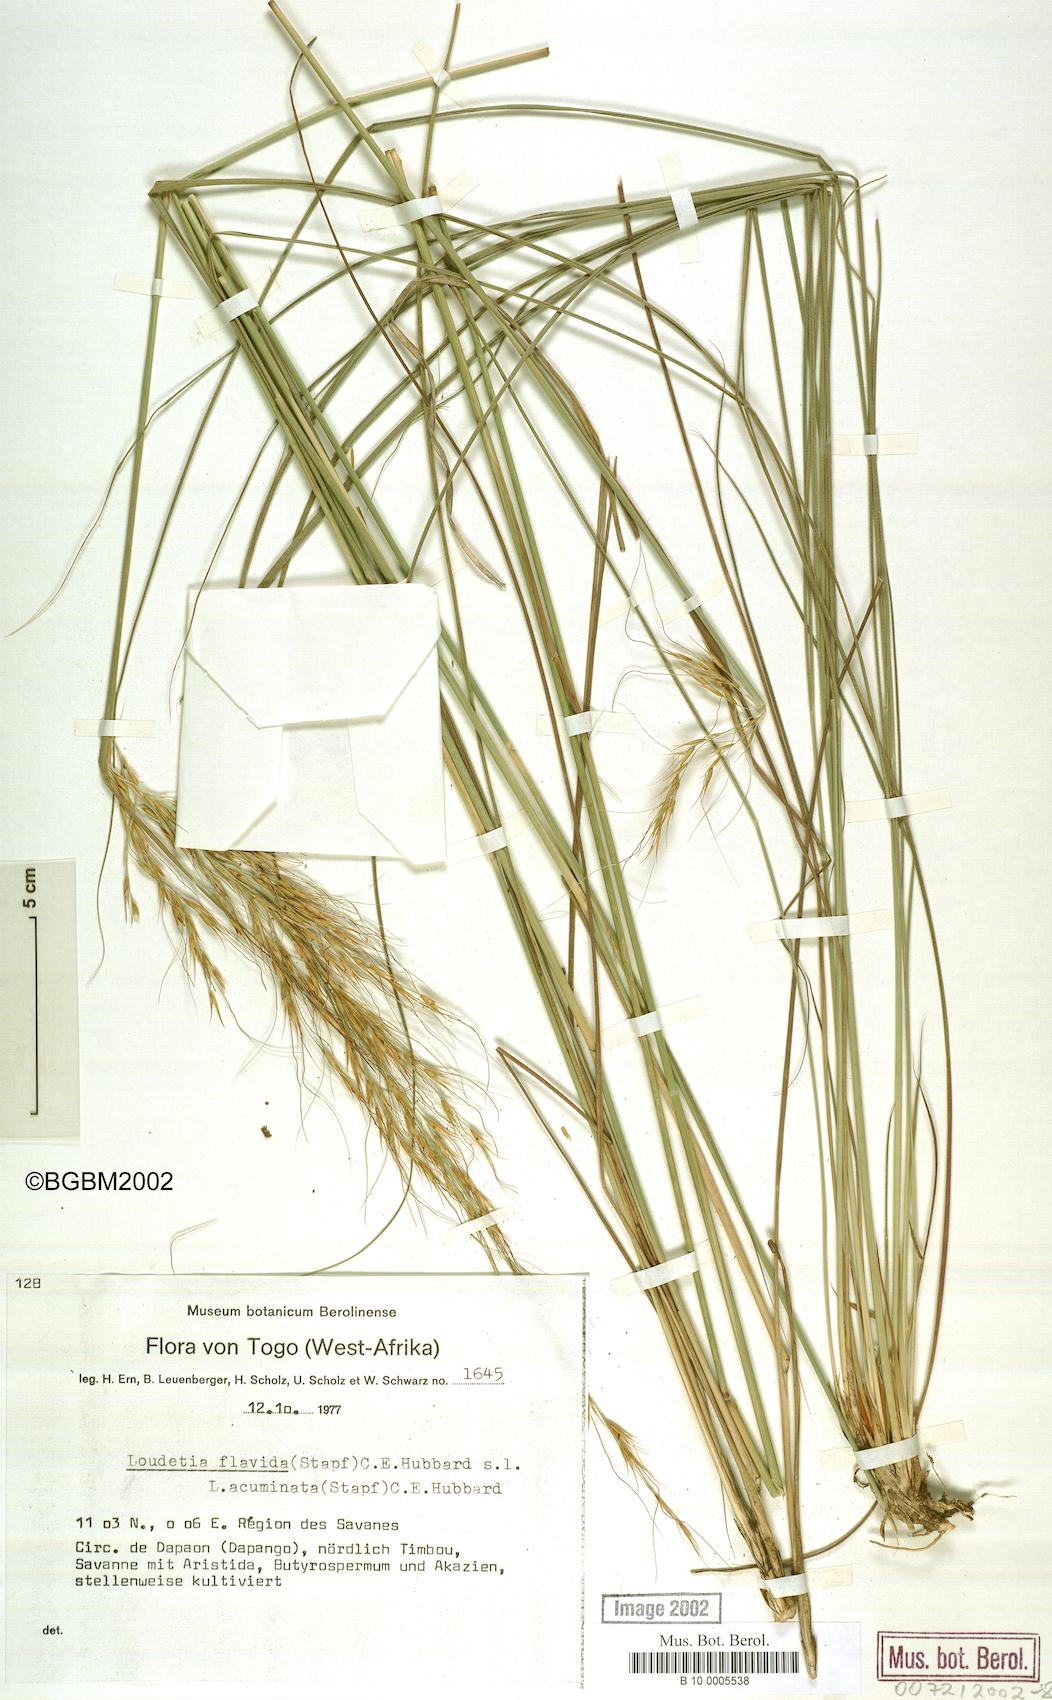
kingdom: Plantae
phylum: Tracheophyta
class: Liliopsida
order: Poales
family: Poaceae
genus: Loudetia
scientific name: Loudetia flavida
